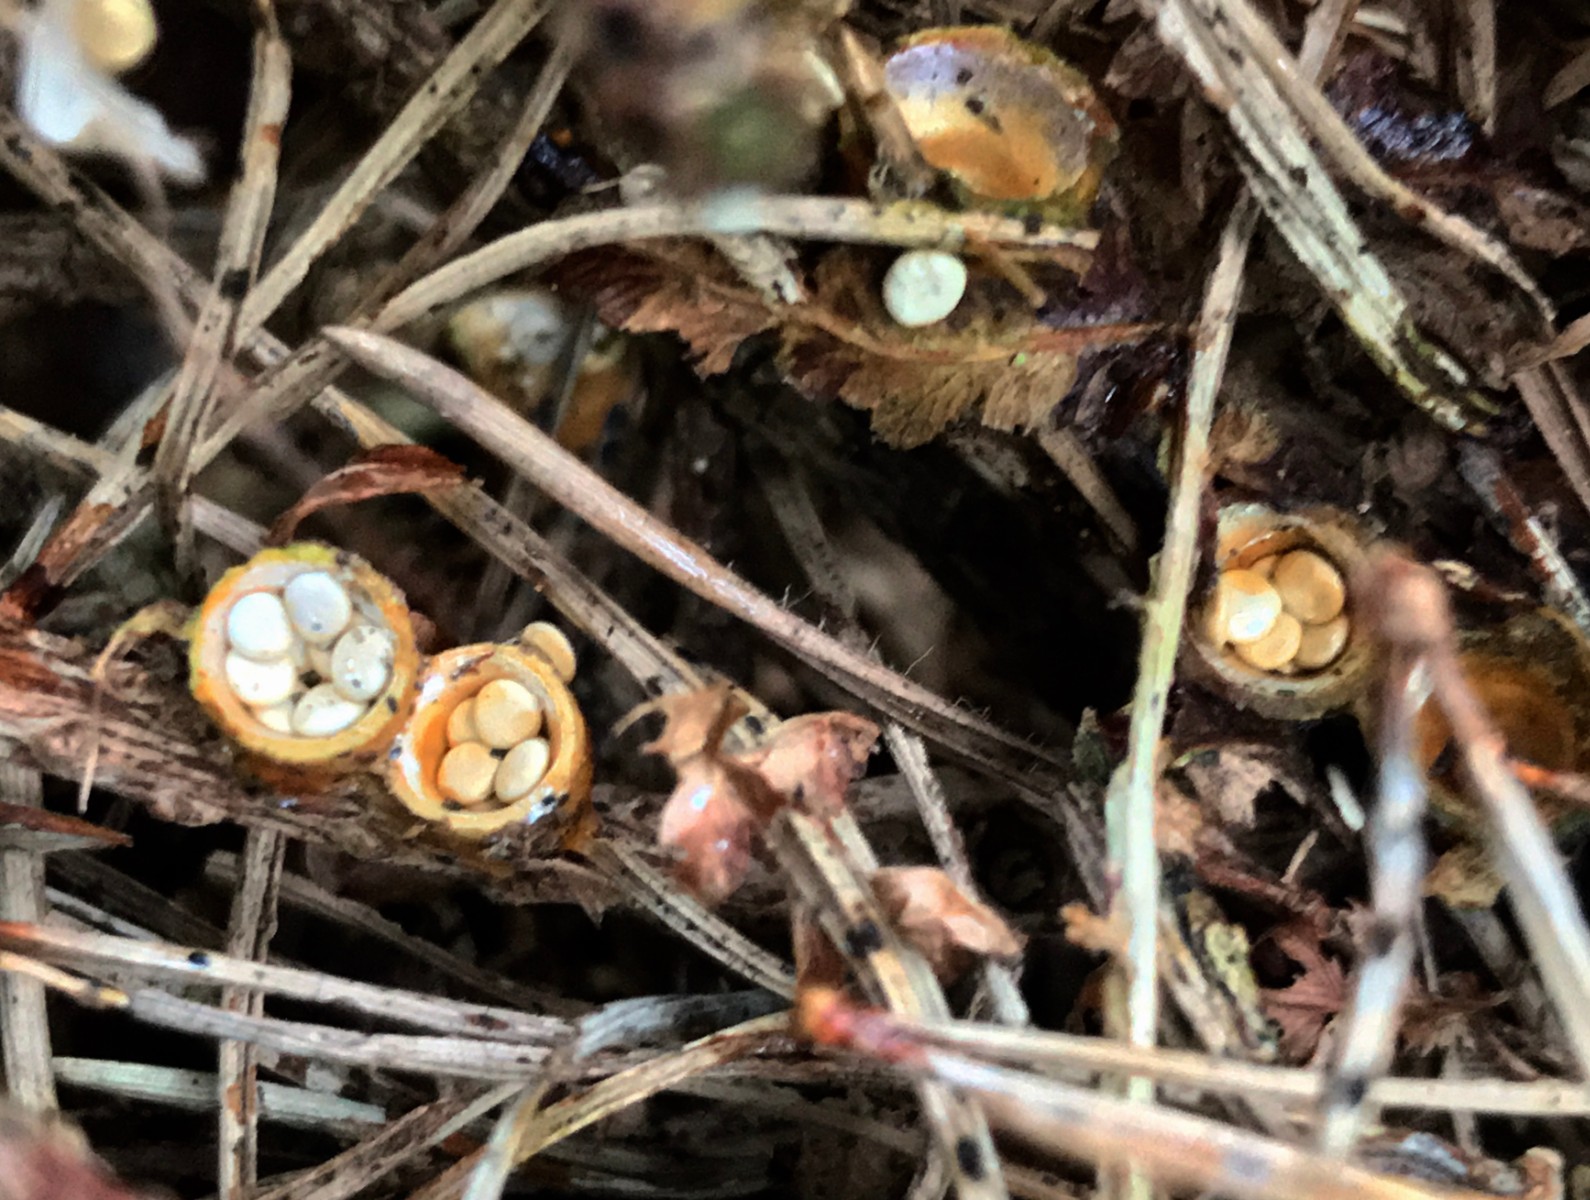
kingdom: Fungi
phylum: Basidiomycota
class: Agaricomycetes
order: Agaricales
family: Nidulariaceae
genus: Crucibulum
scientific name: Crucibulum crucibuliforme
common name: krukkesvamp
